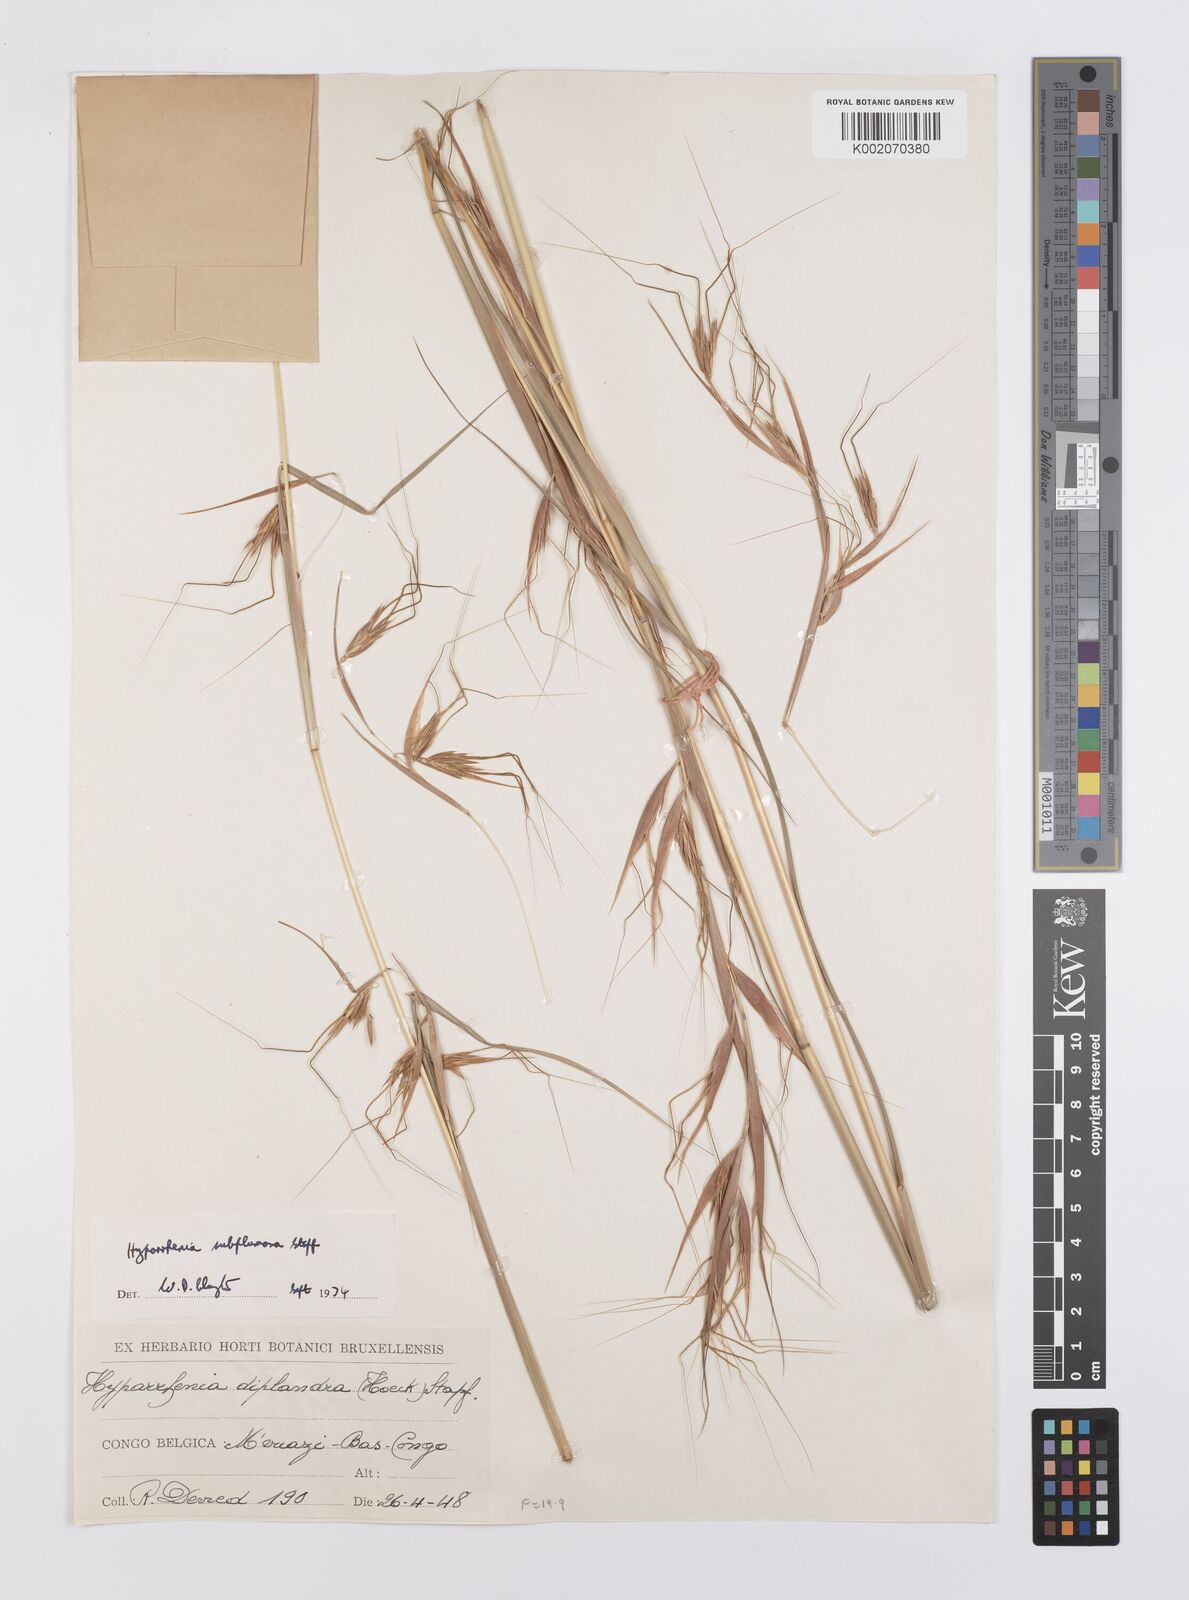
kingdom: Plantae
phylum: Tracheophyta
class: Liliopsida
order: Poales
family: Poaceae
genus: Hyparrhenia
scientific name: Hyparrhenia subplumosa
